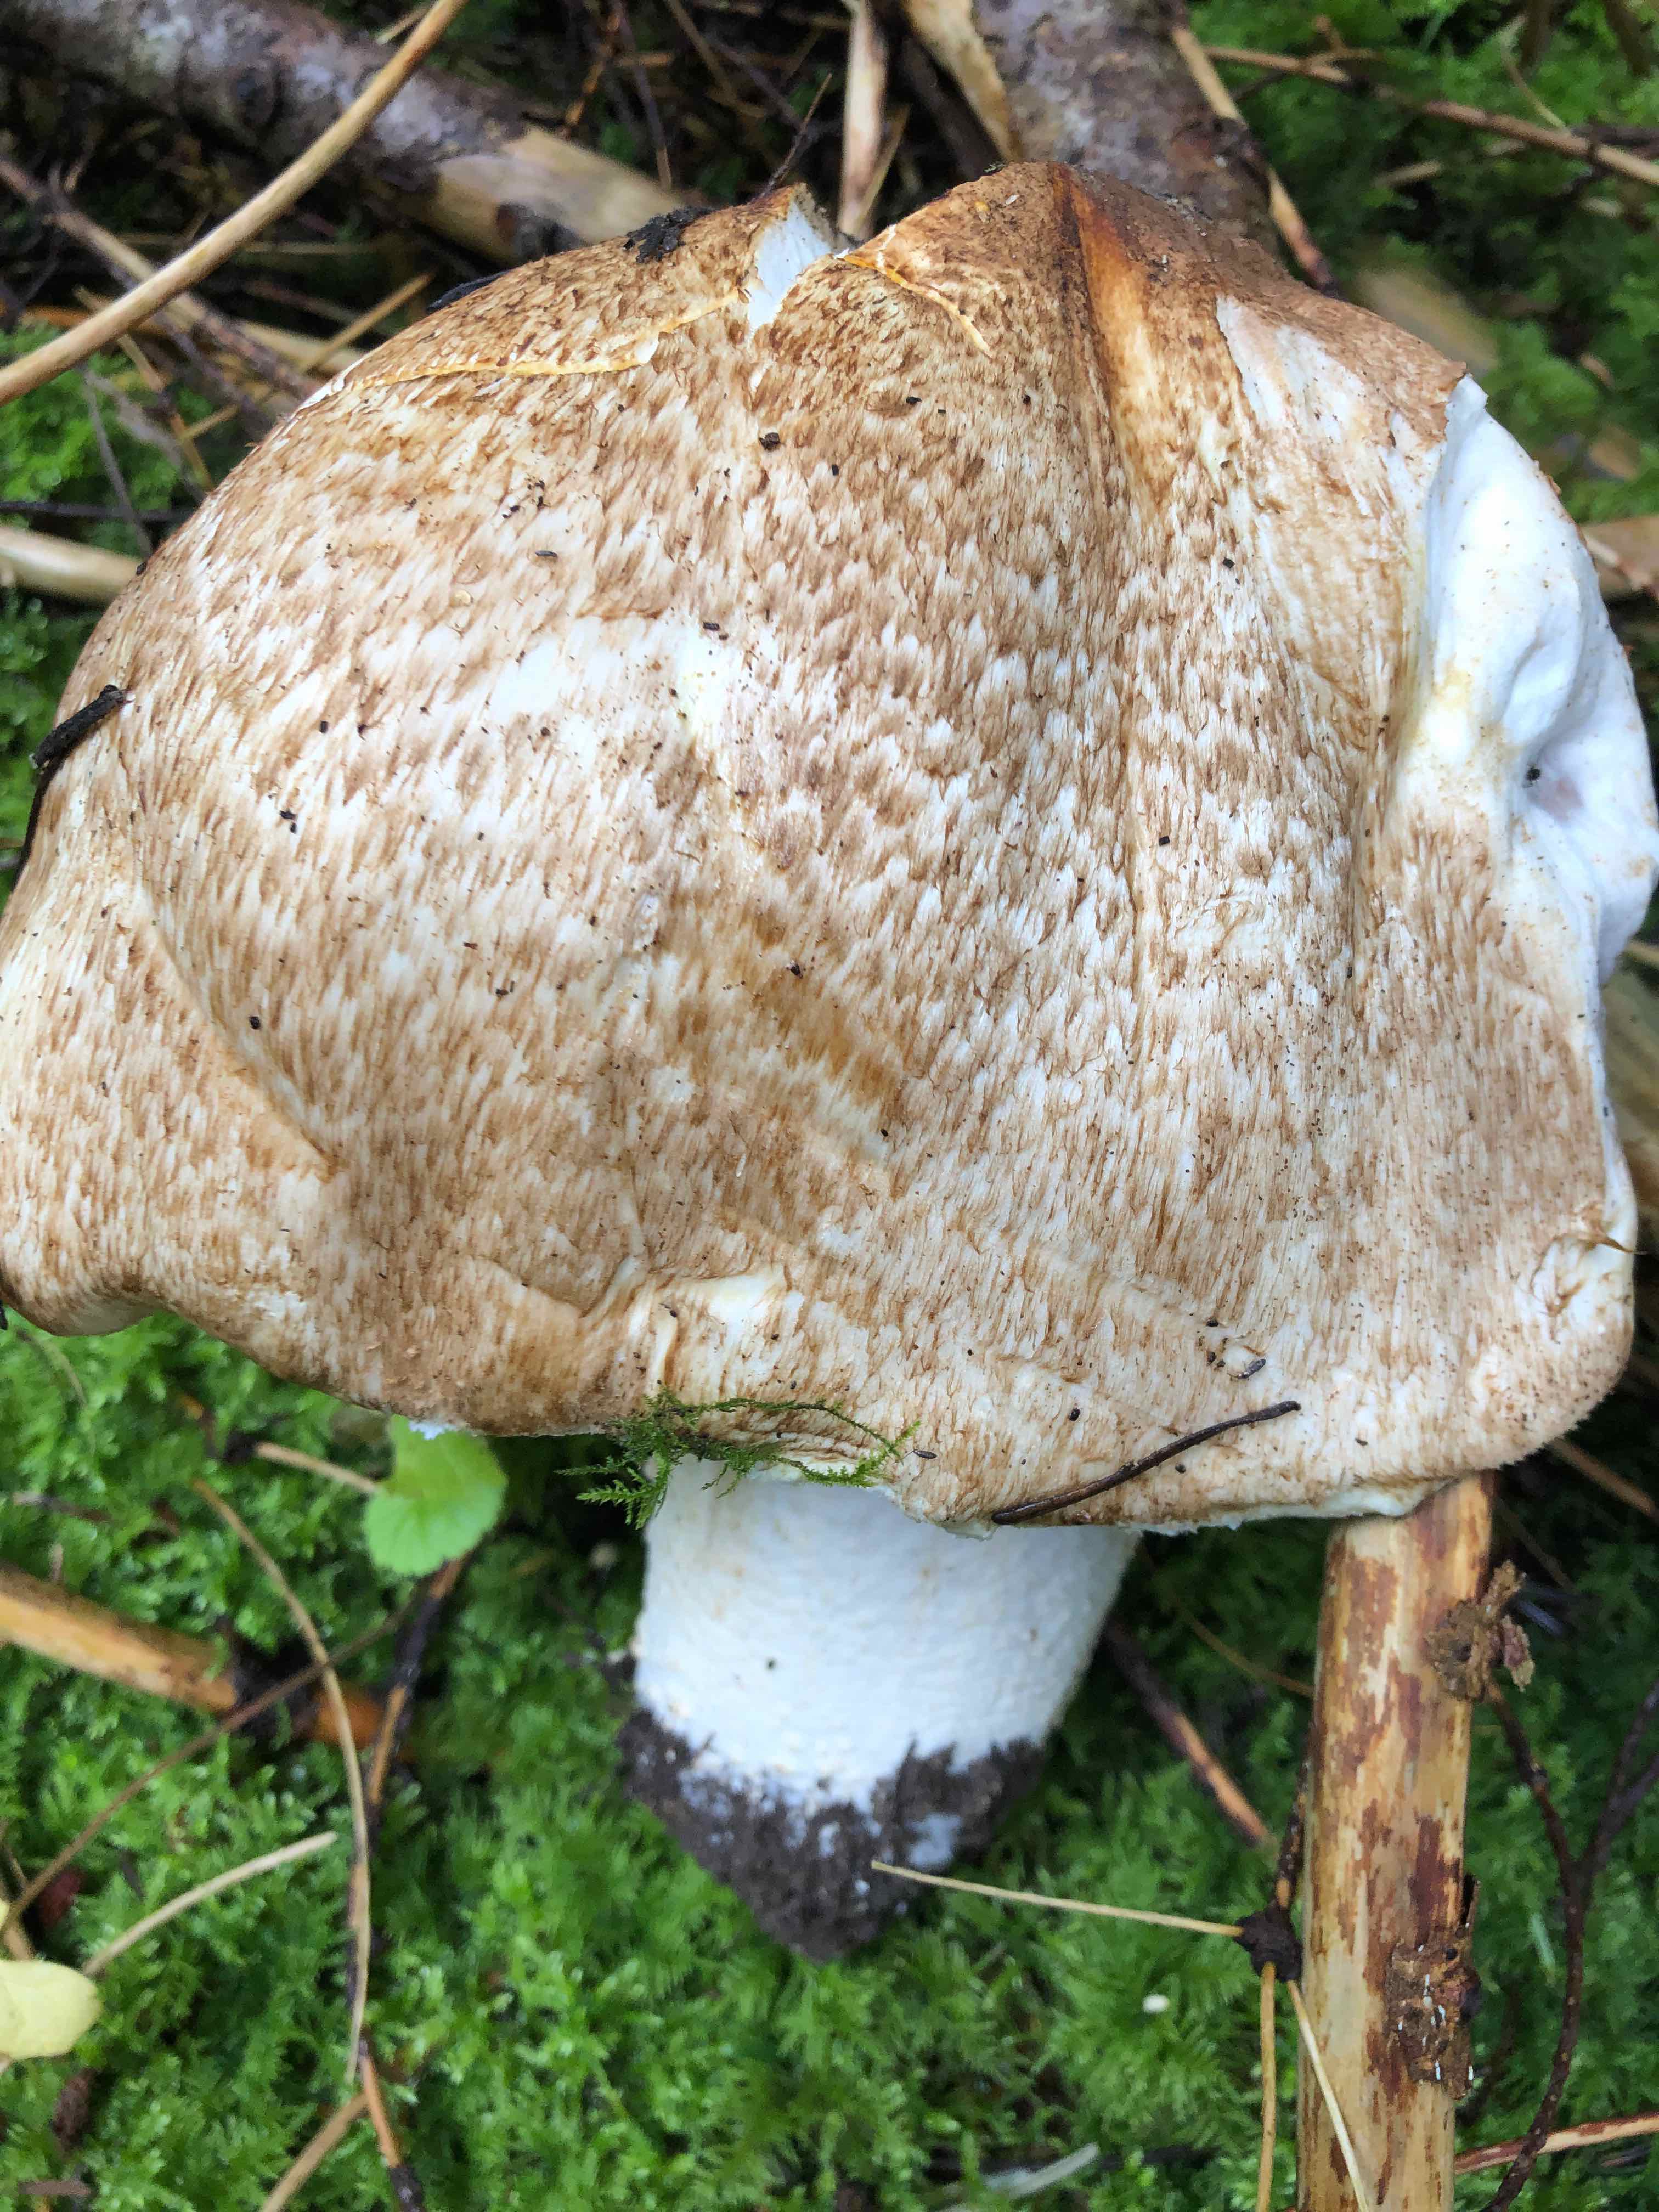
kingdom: Fungi
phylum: Basidiomycota
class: Agaricomycetes
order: Agaricales
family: Agaricaceae
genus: Agaricus
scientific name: Agaricus augustus
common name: prægtig champignon
